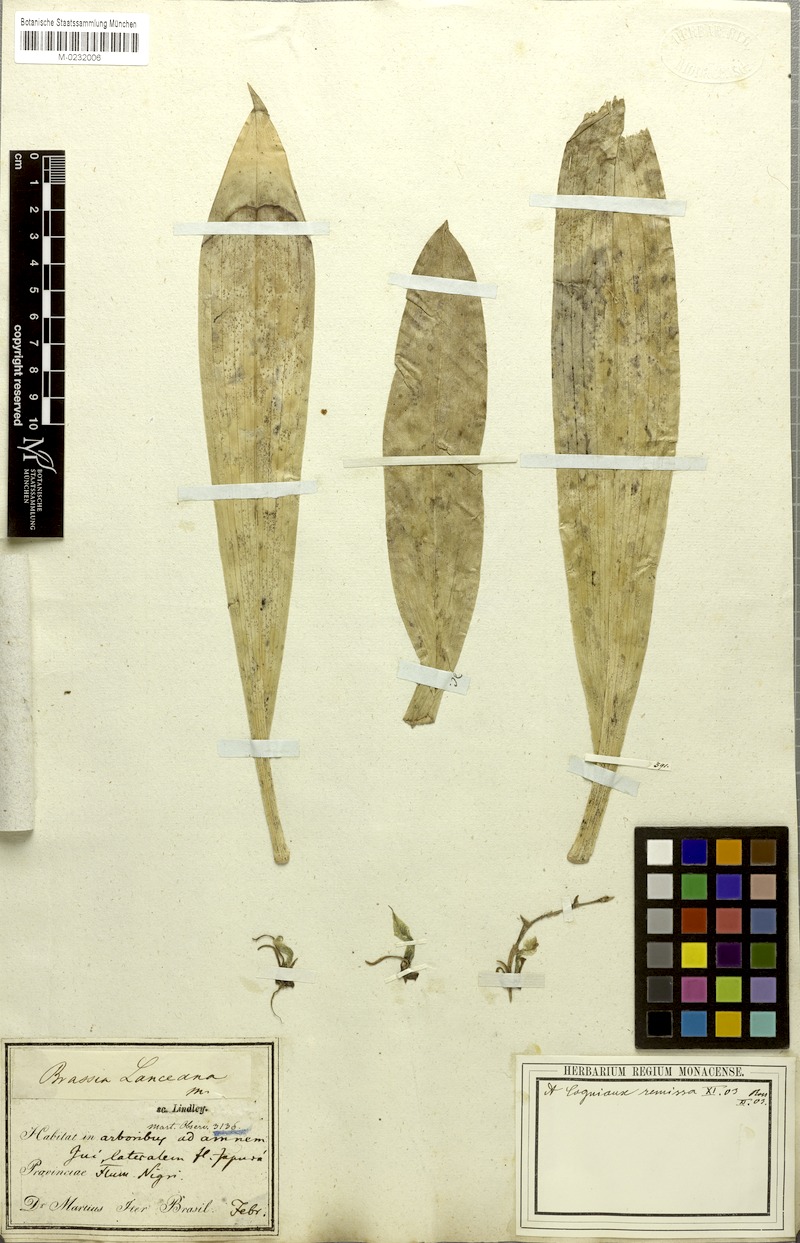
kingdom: Plantae
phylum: Tracheophyta
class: Liliopsida
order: Asparagales
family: Orchidaceae
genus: Brassia
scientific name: Brassia lanceana
